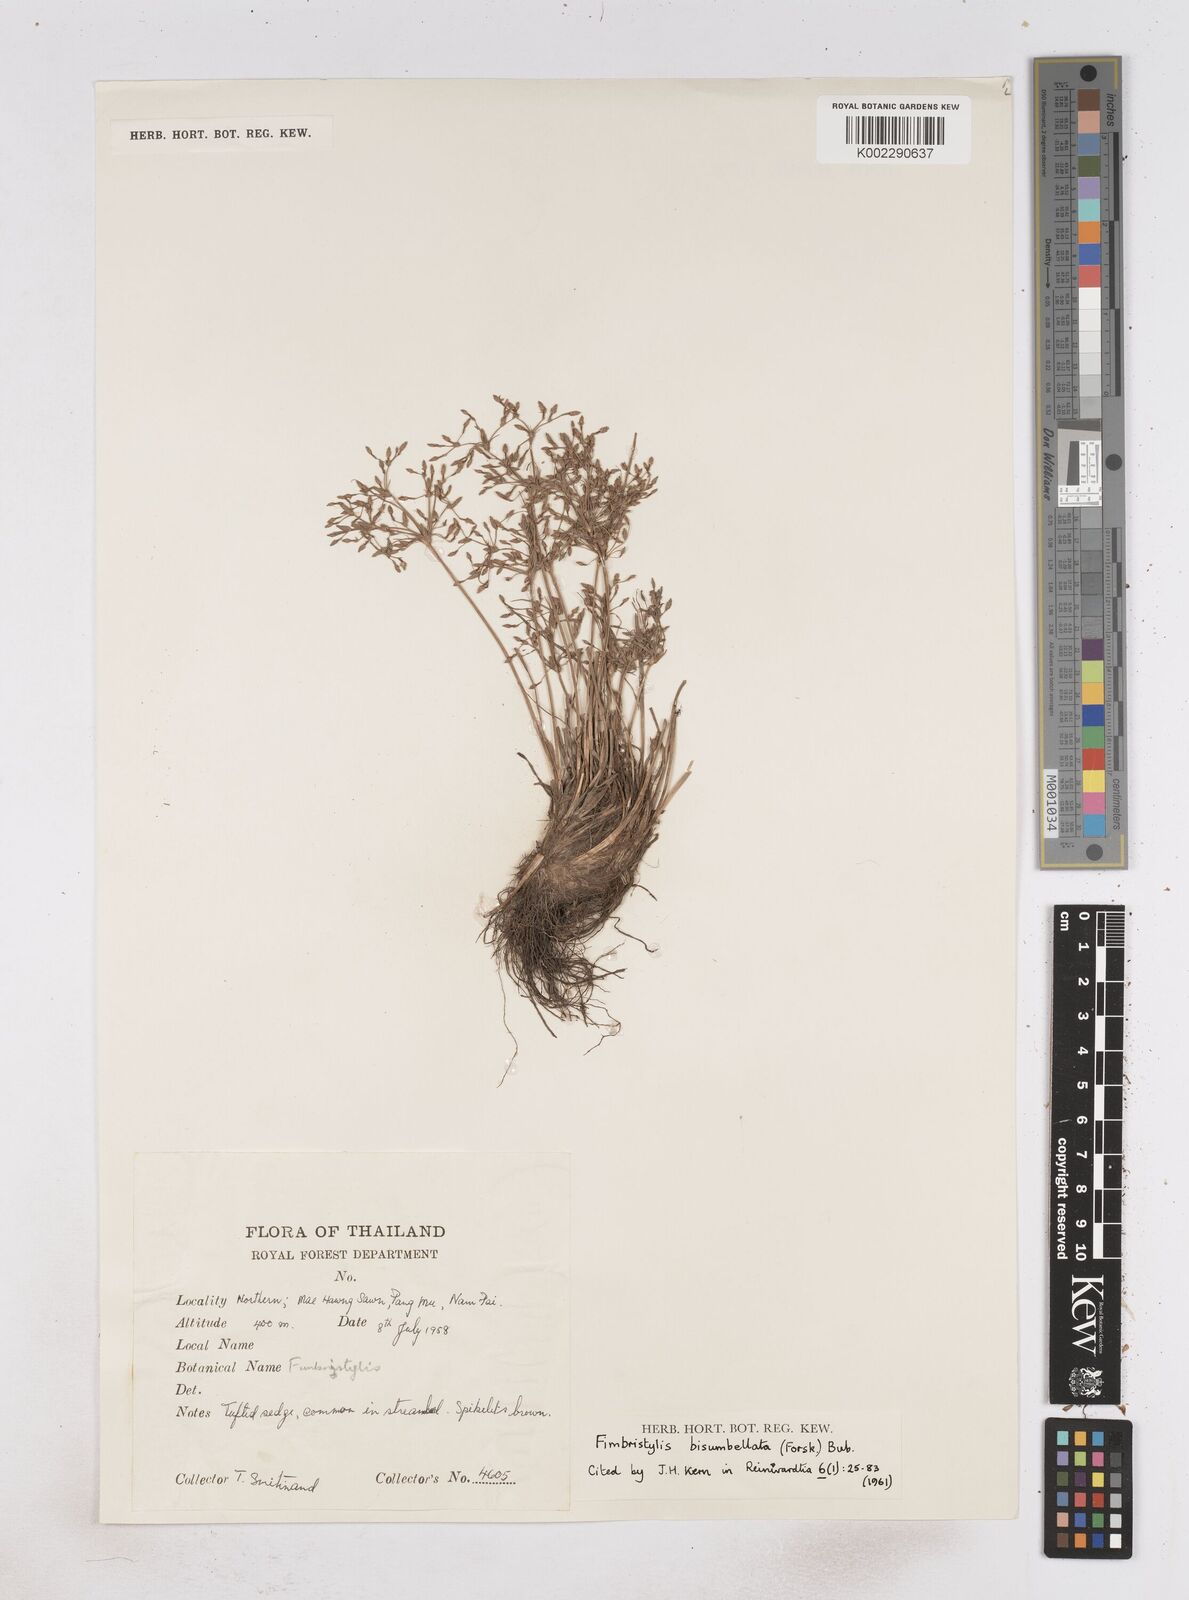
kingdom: Plantae
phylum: Tracheophyta
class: Liliopsida
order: Poales
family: Cyperaceae
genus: Fimbristylis
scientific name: Fimbristylis bisumbellata
